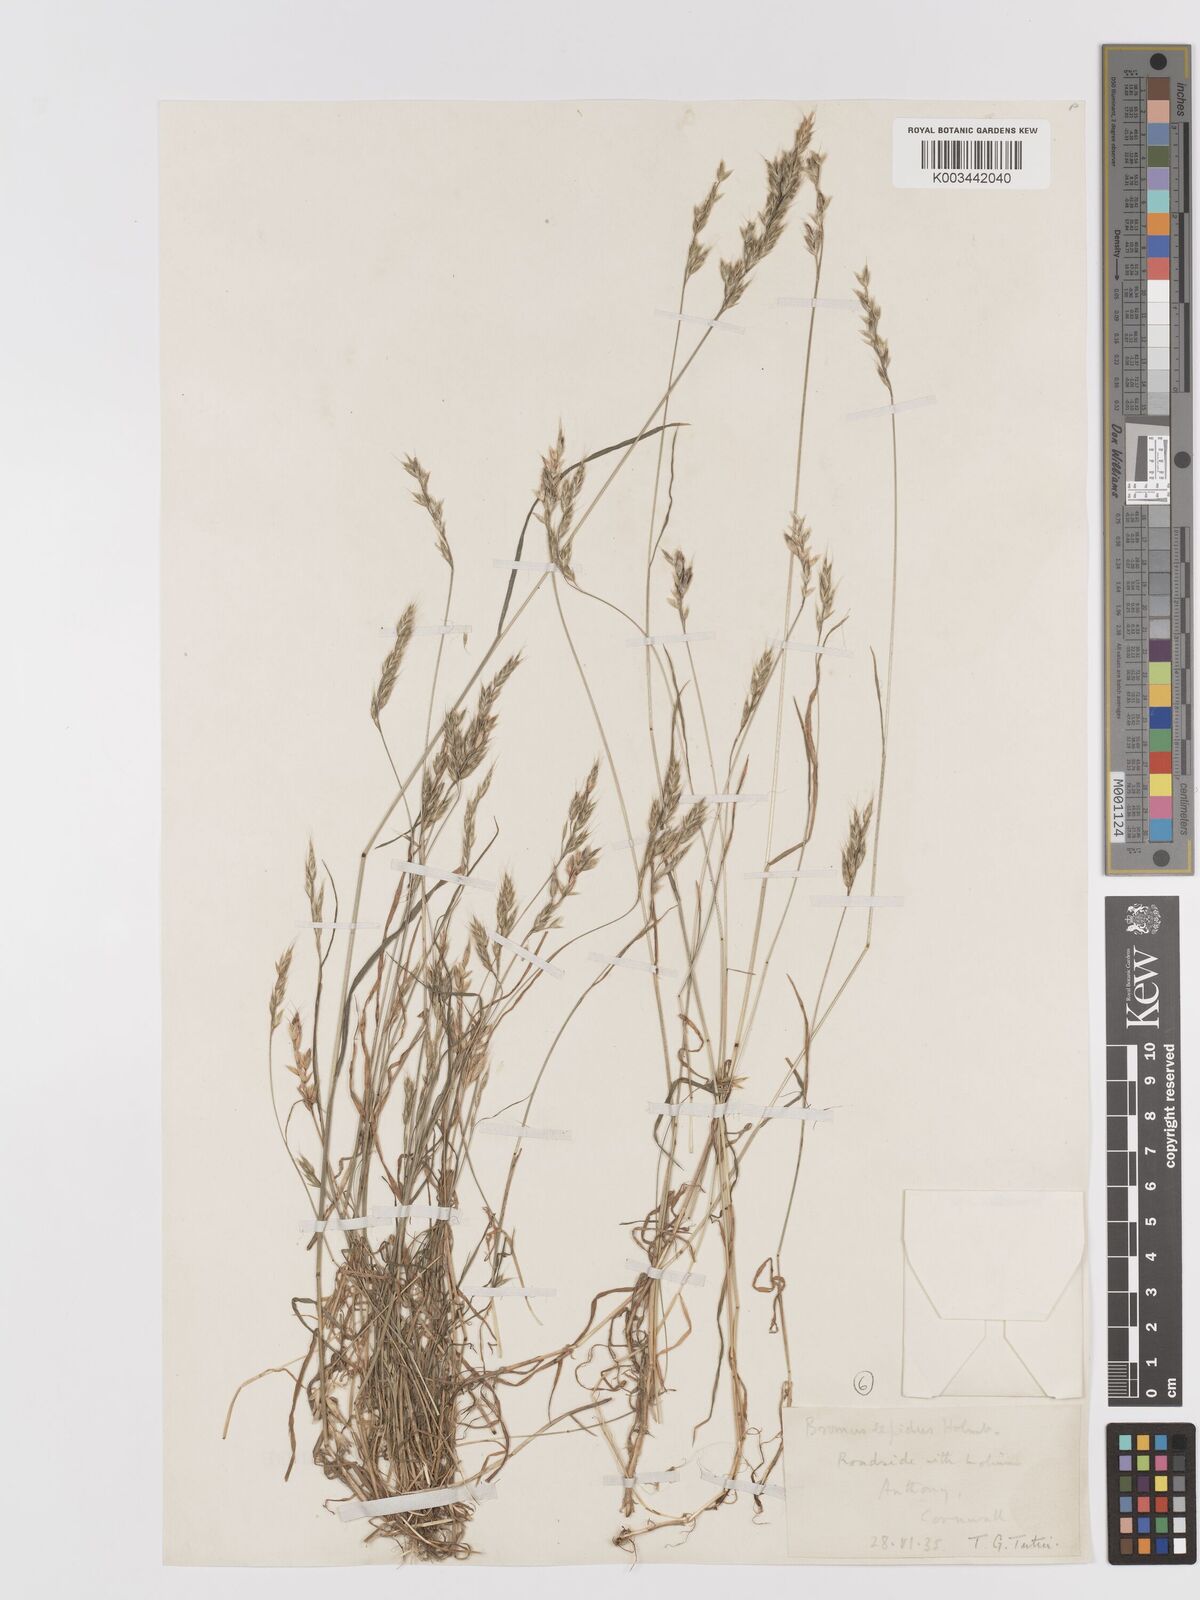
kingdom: Plantae
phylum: Tracheophyta
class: Liliopsida
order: Poales
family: Poaceae
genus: Bromus
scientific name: Bromus lepidus
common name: Slender soft-brome
